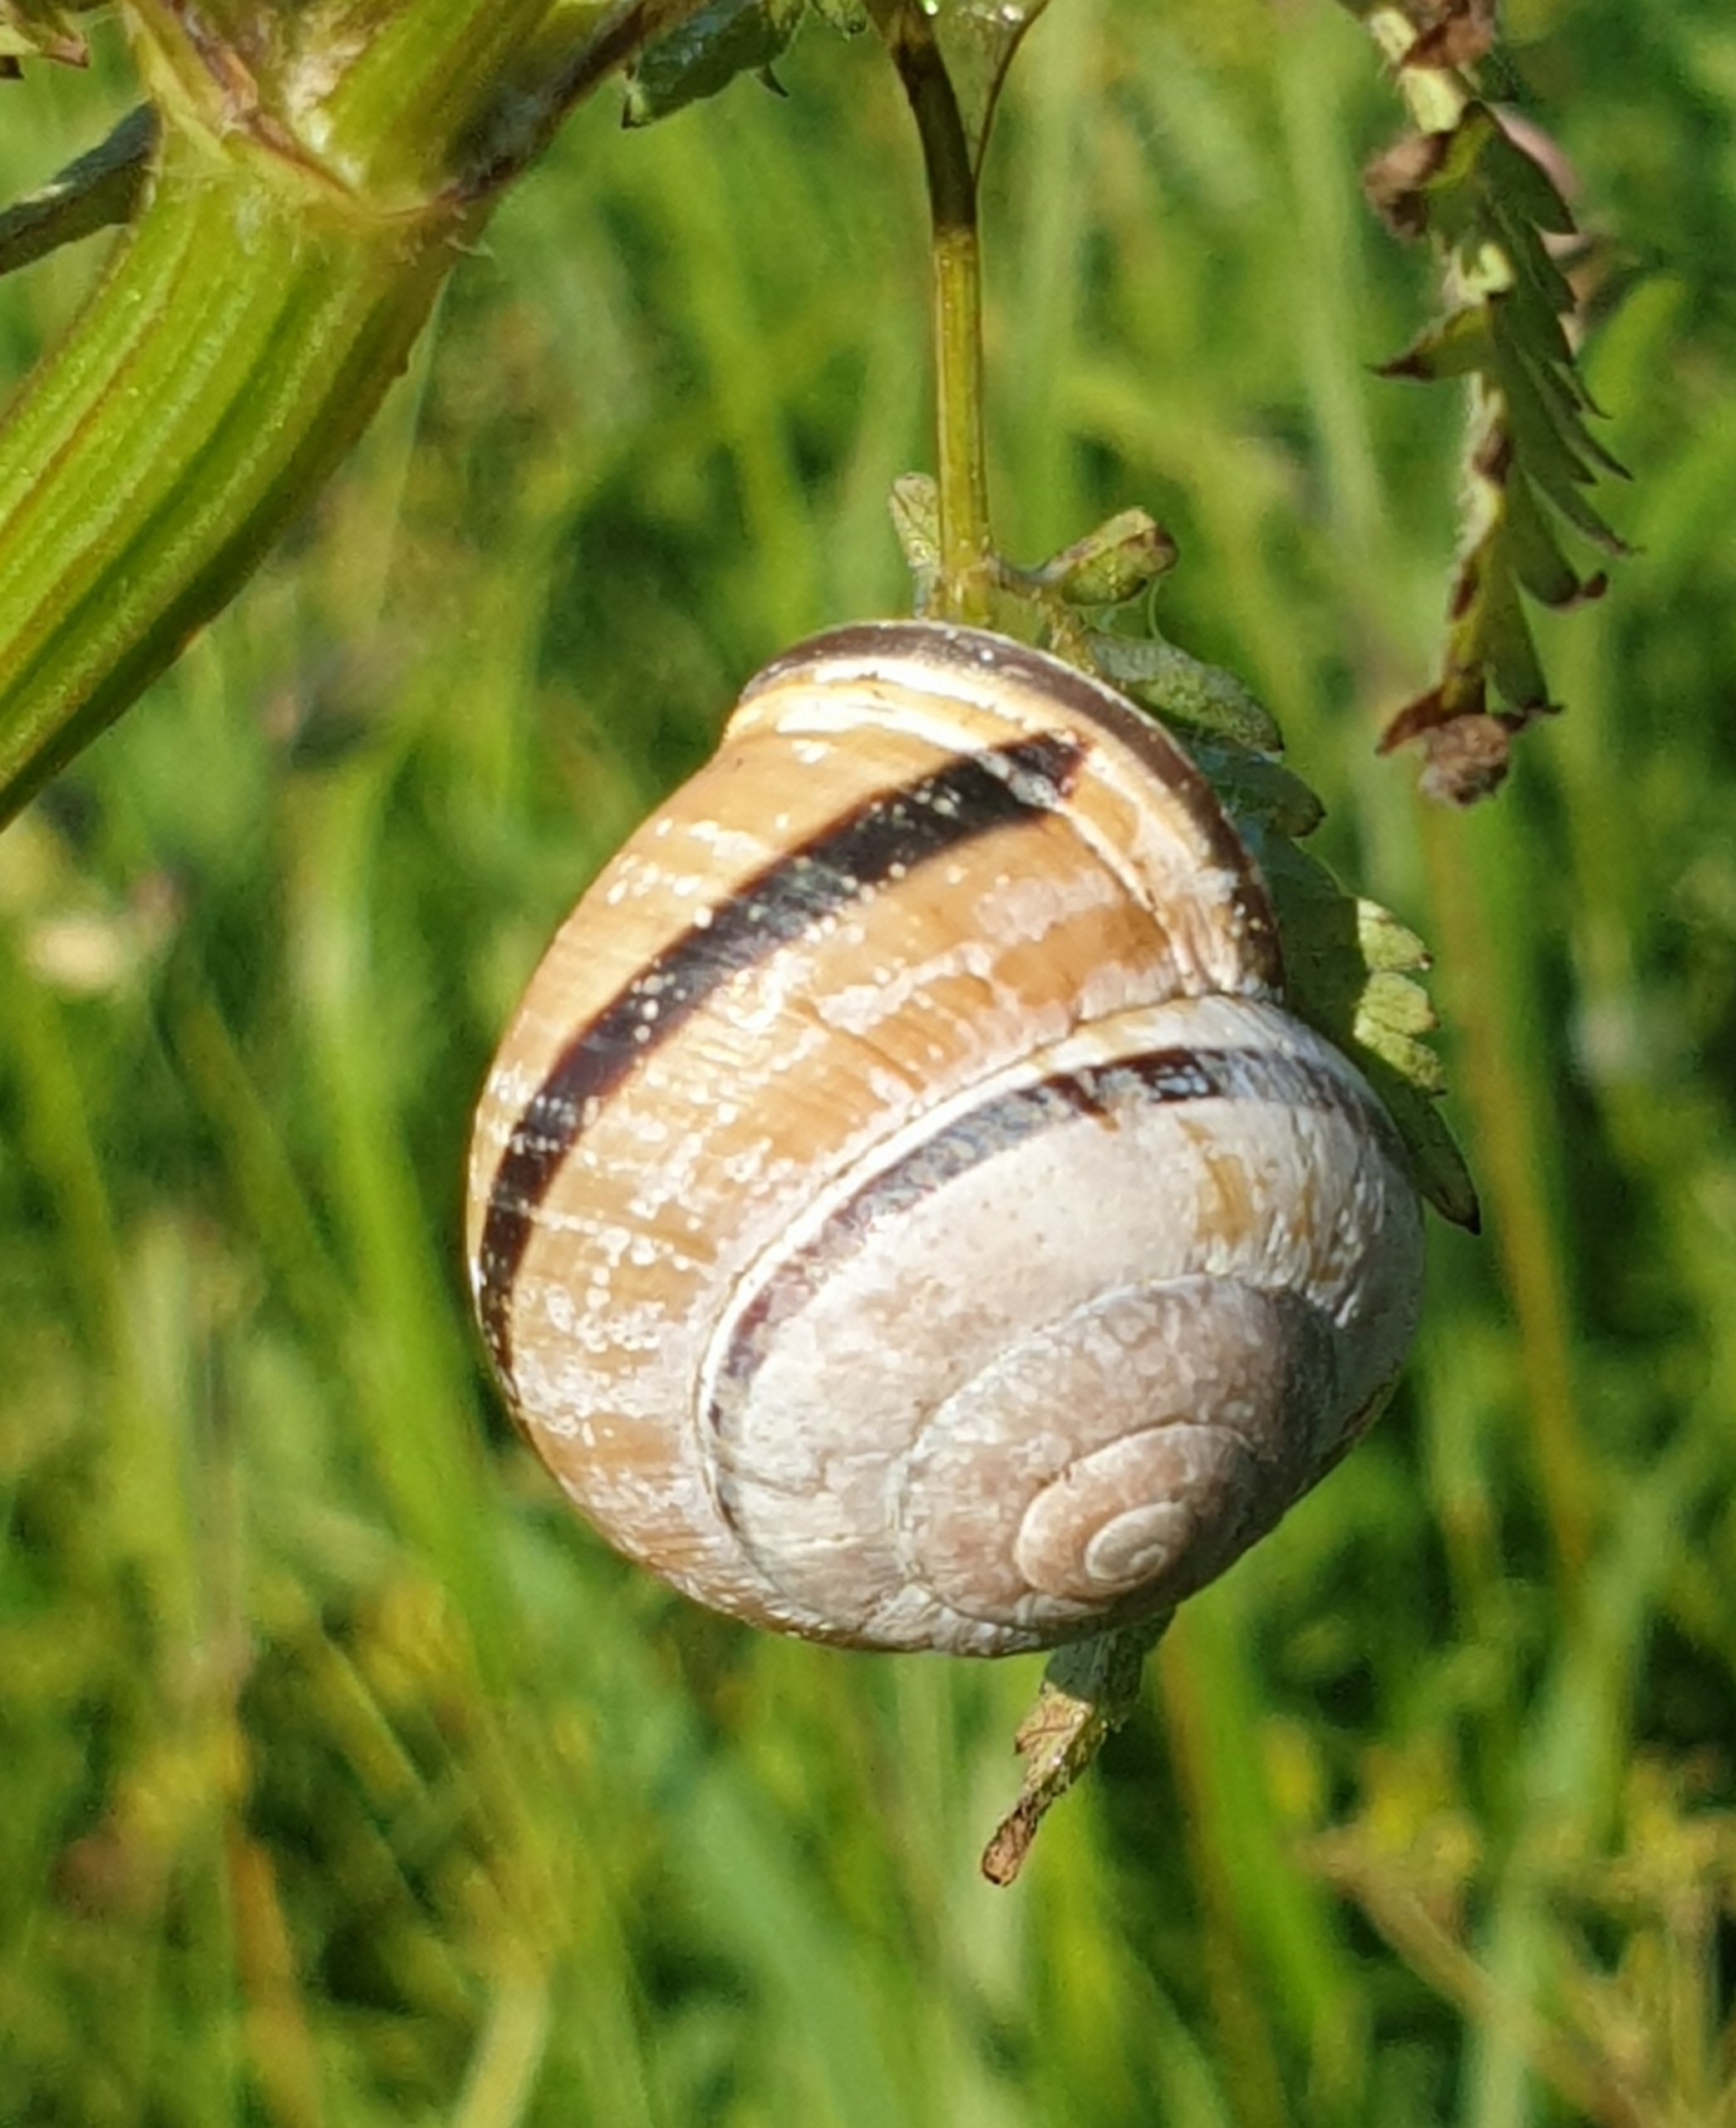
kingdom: Animalia
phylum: Mollusca
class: Gastropoda
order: Stylommatophora
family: Helicidae
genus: Cepaea
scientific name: Cepaea nemoralis
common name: Lundsnegl
